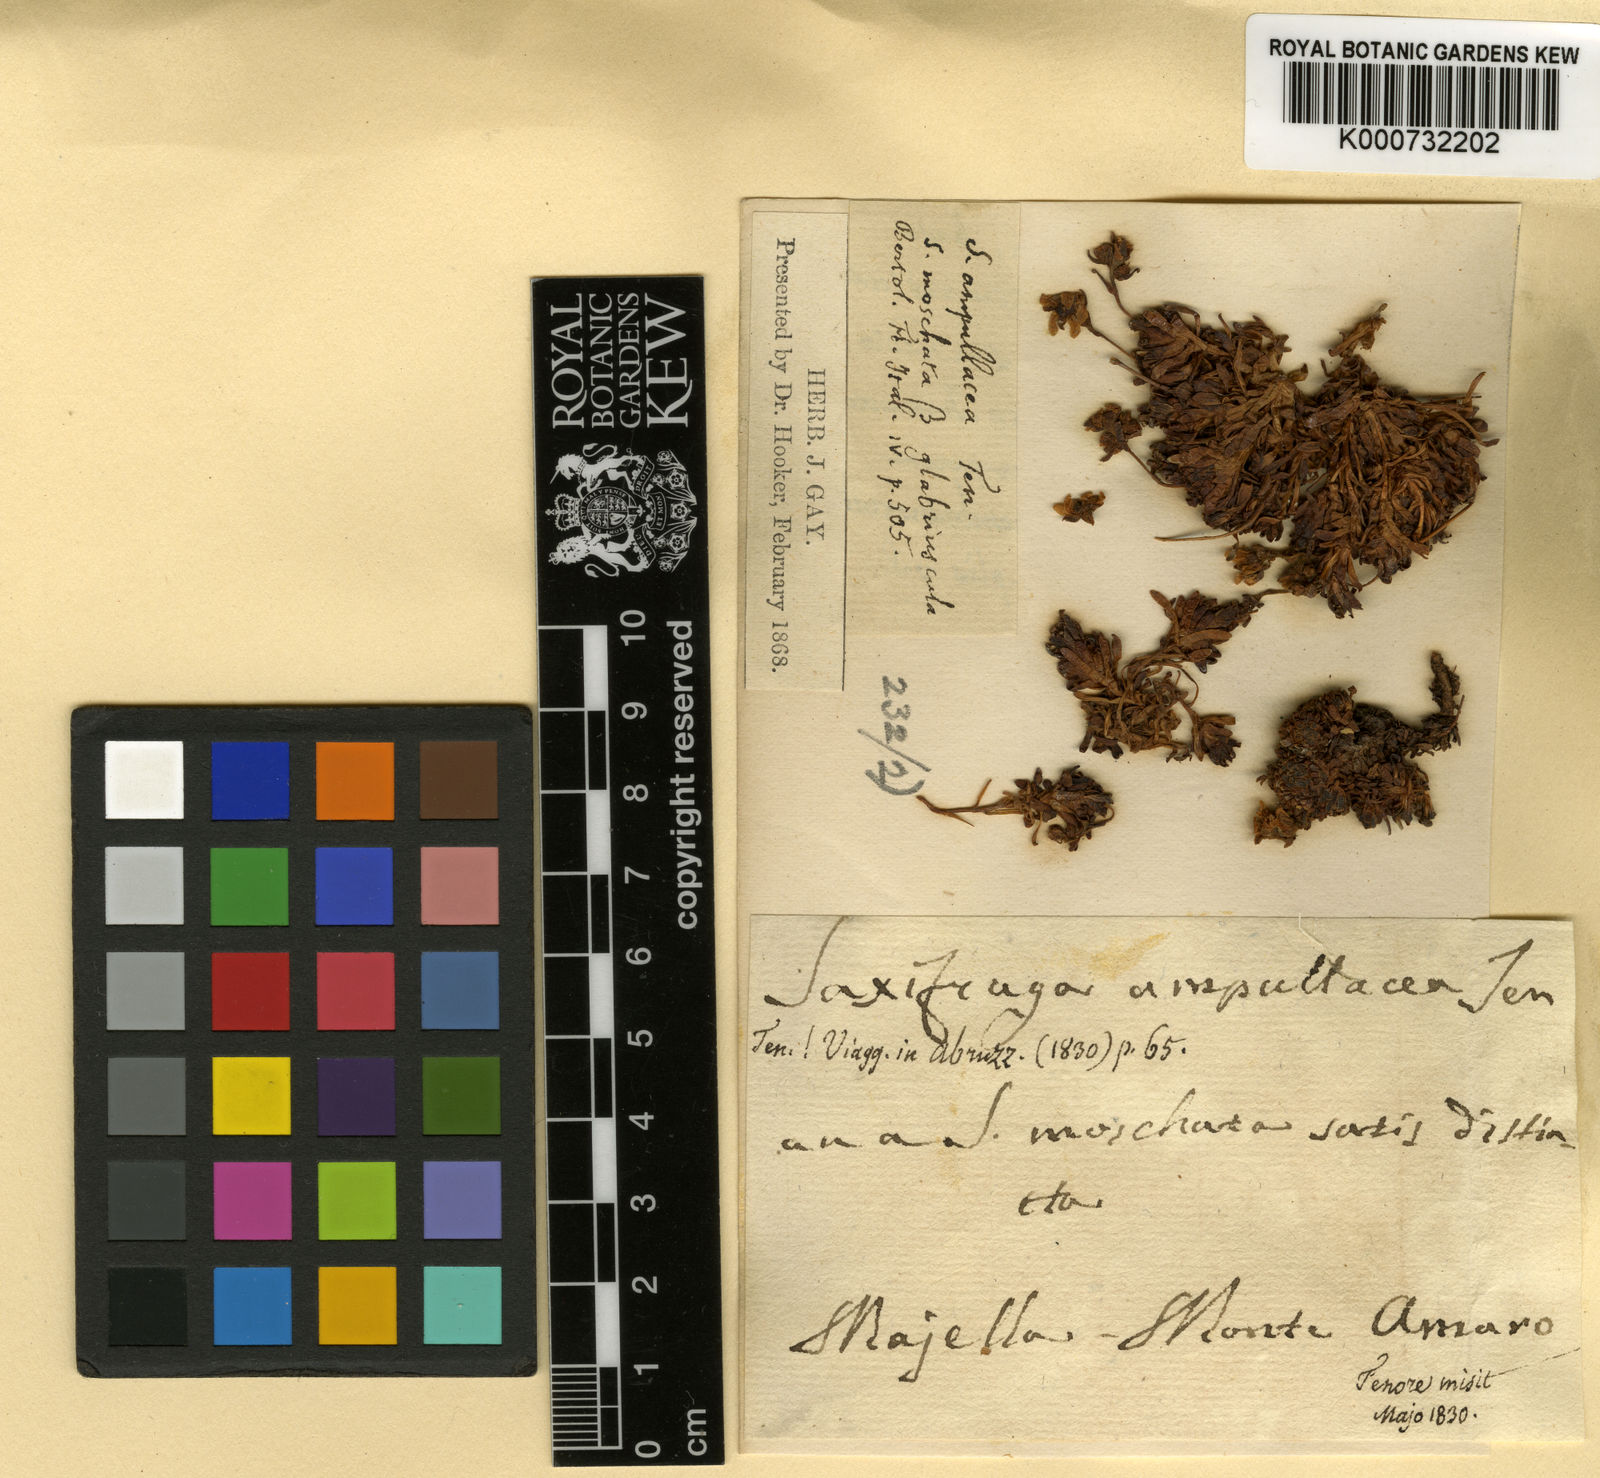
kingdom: Plantae
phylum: Tracheophyta
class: Magnoliopsida
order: Saxifragales
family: Saxifragaceae
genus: Saxifraga
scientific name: Saxifraga moschata
